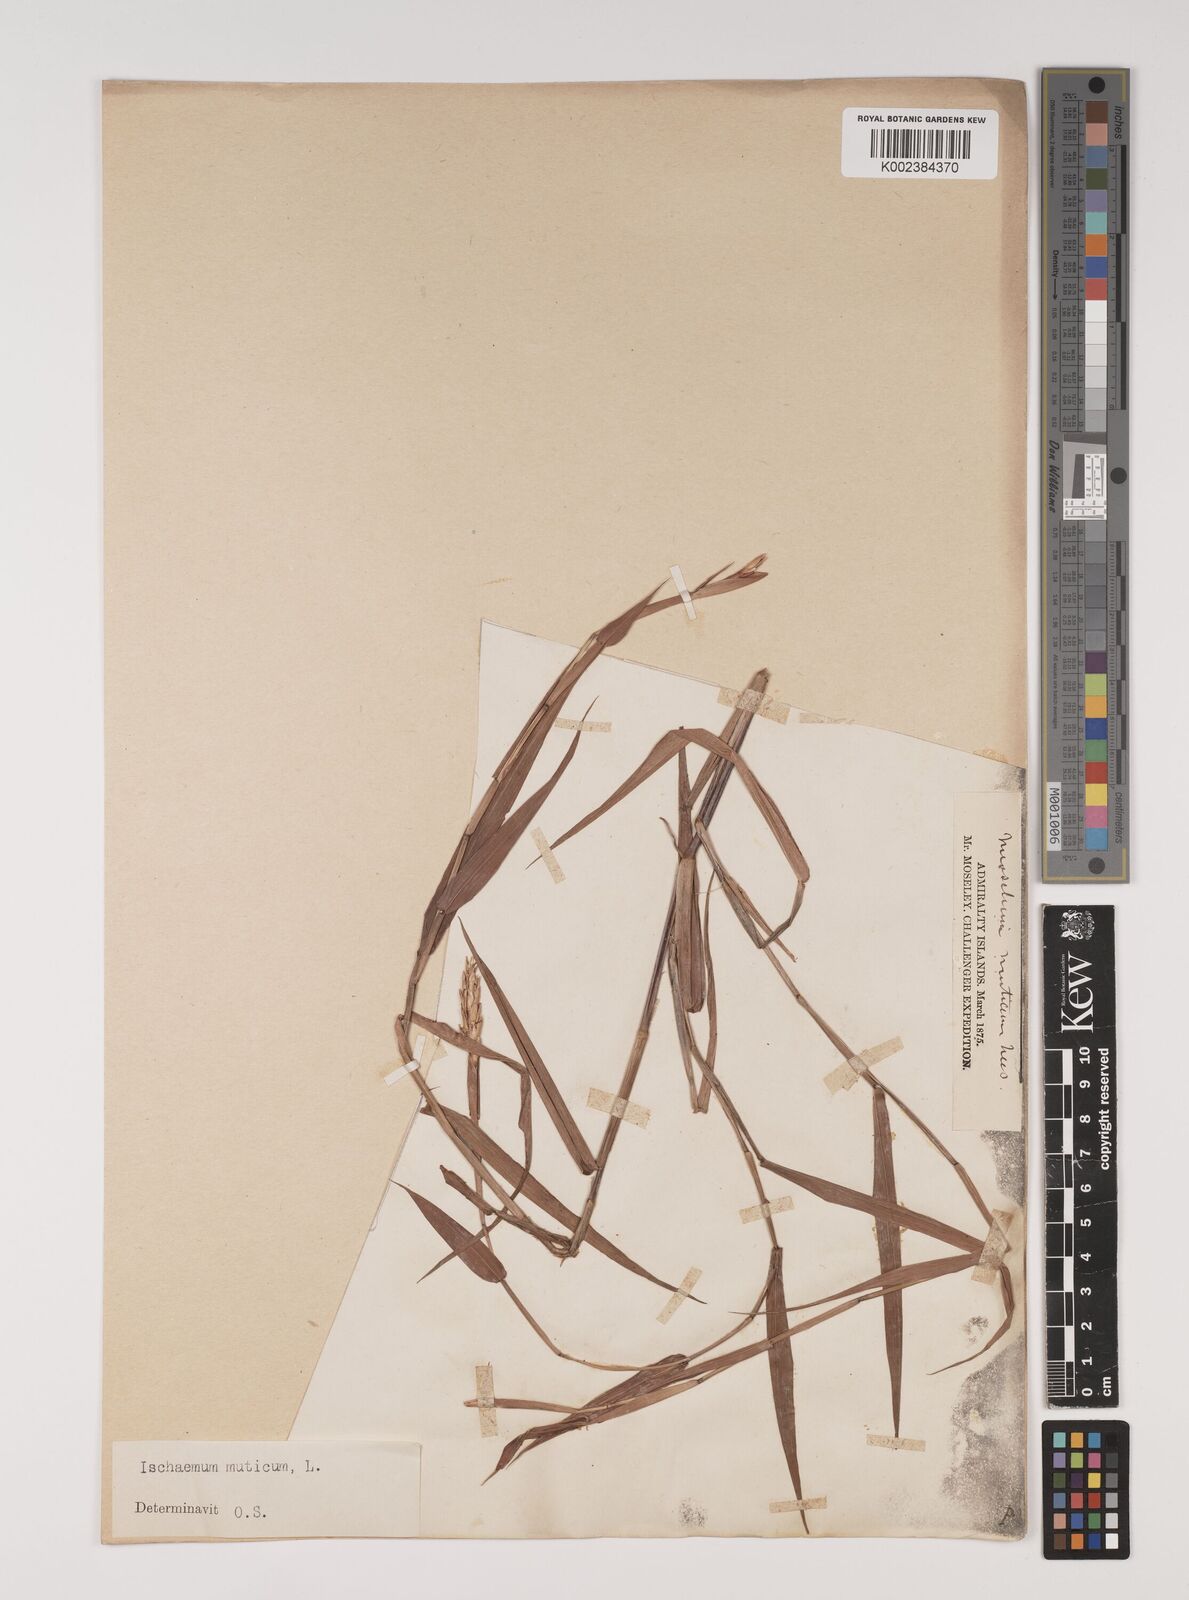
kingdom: Plantae
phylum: Tracheophyta
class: Liliopsida
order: Poales
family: Poaceae
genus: Ischaemum
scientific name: Ischaemum muticum
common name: Drought grass
